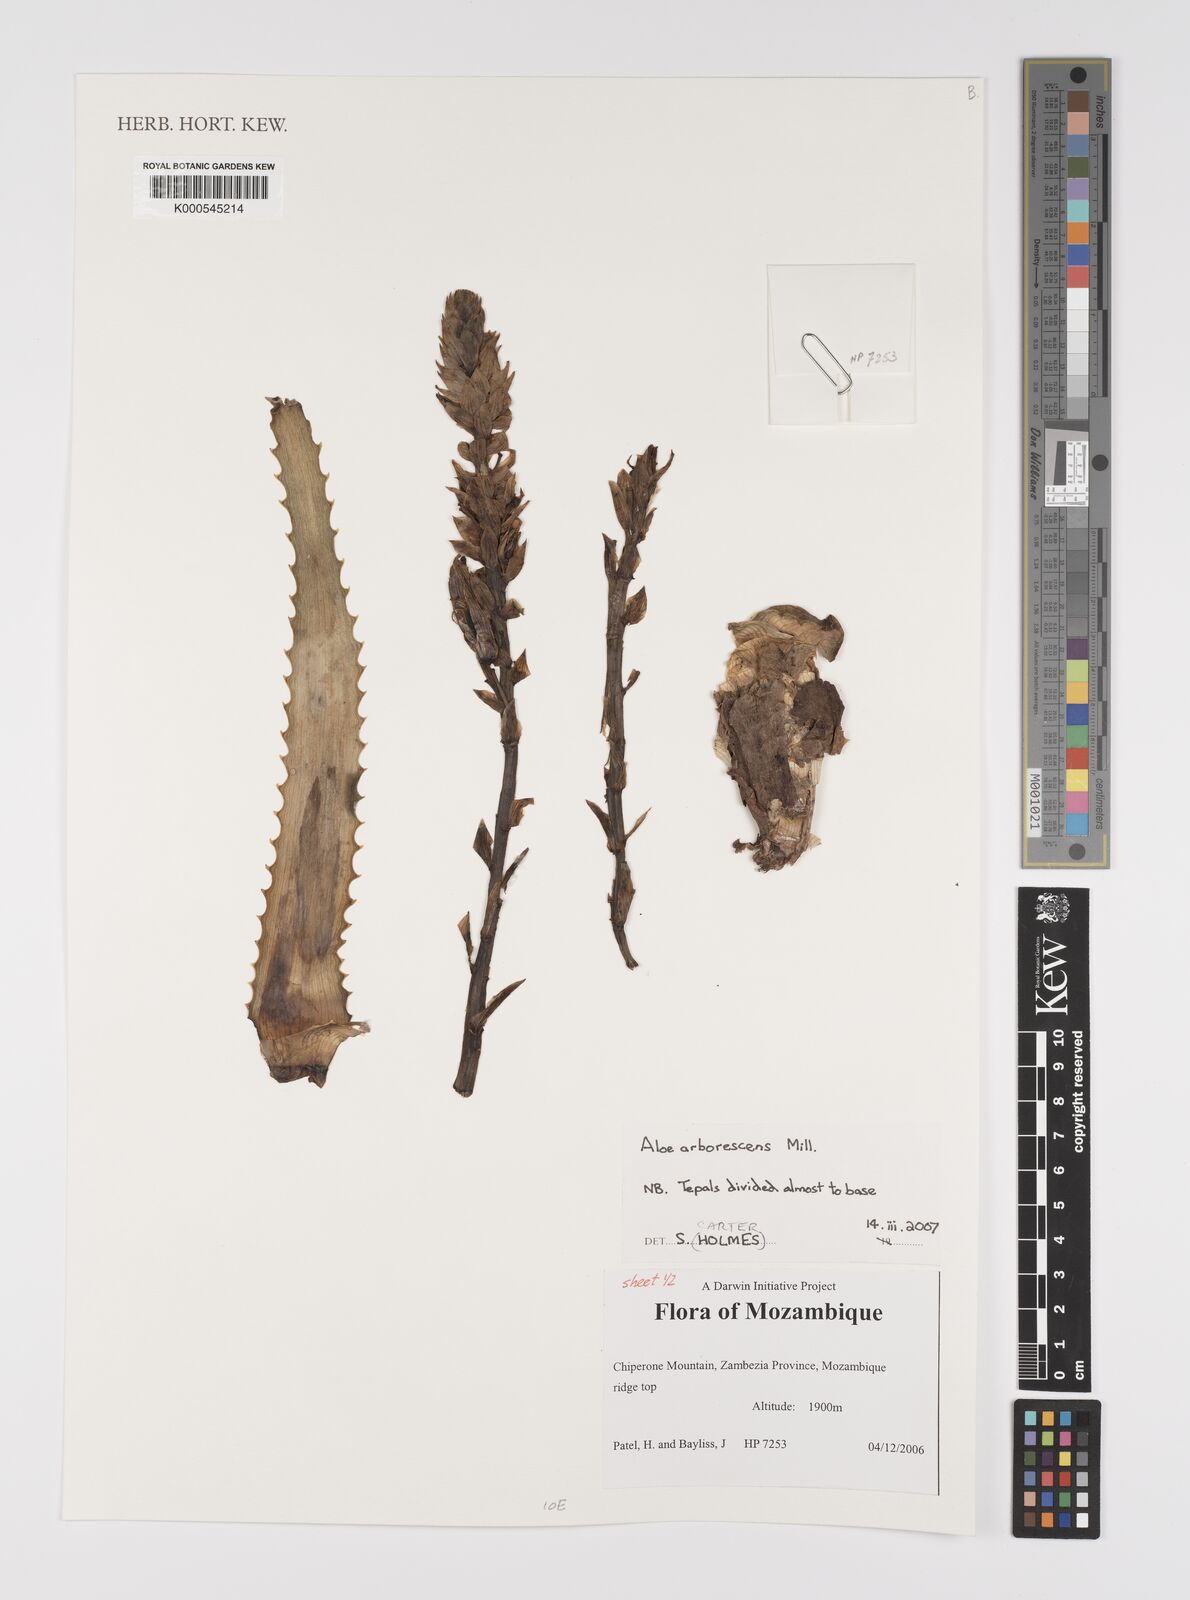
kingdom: Plantae
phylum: Tracheophyta
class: Liliopsida
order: Asparagales
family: Asphodelaceae
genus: Aloe
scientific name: Aloe arborescens
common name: Candelabra aloe
